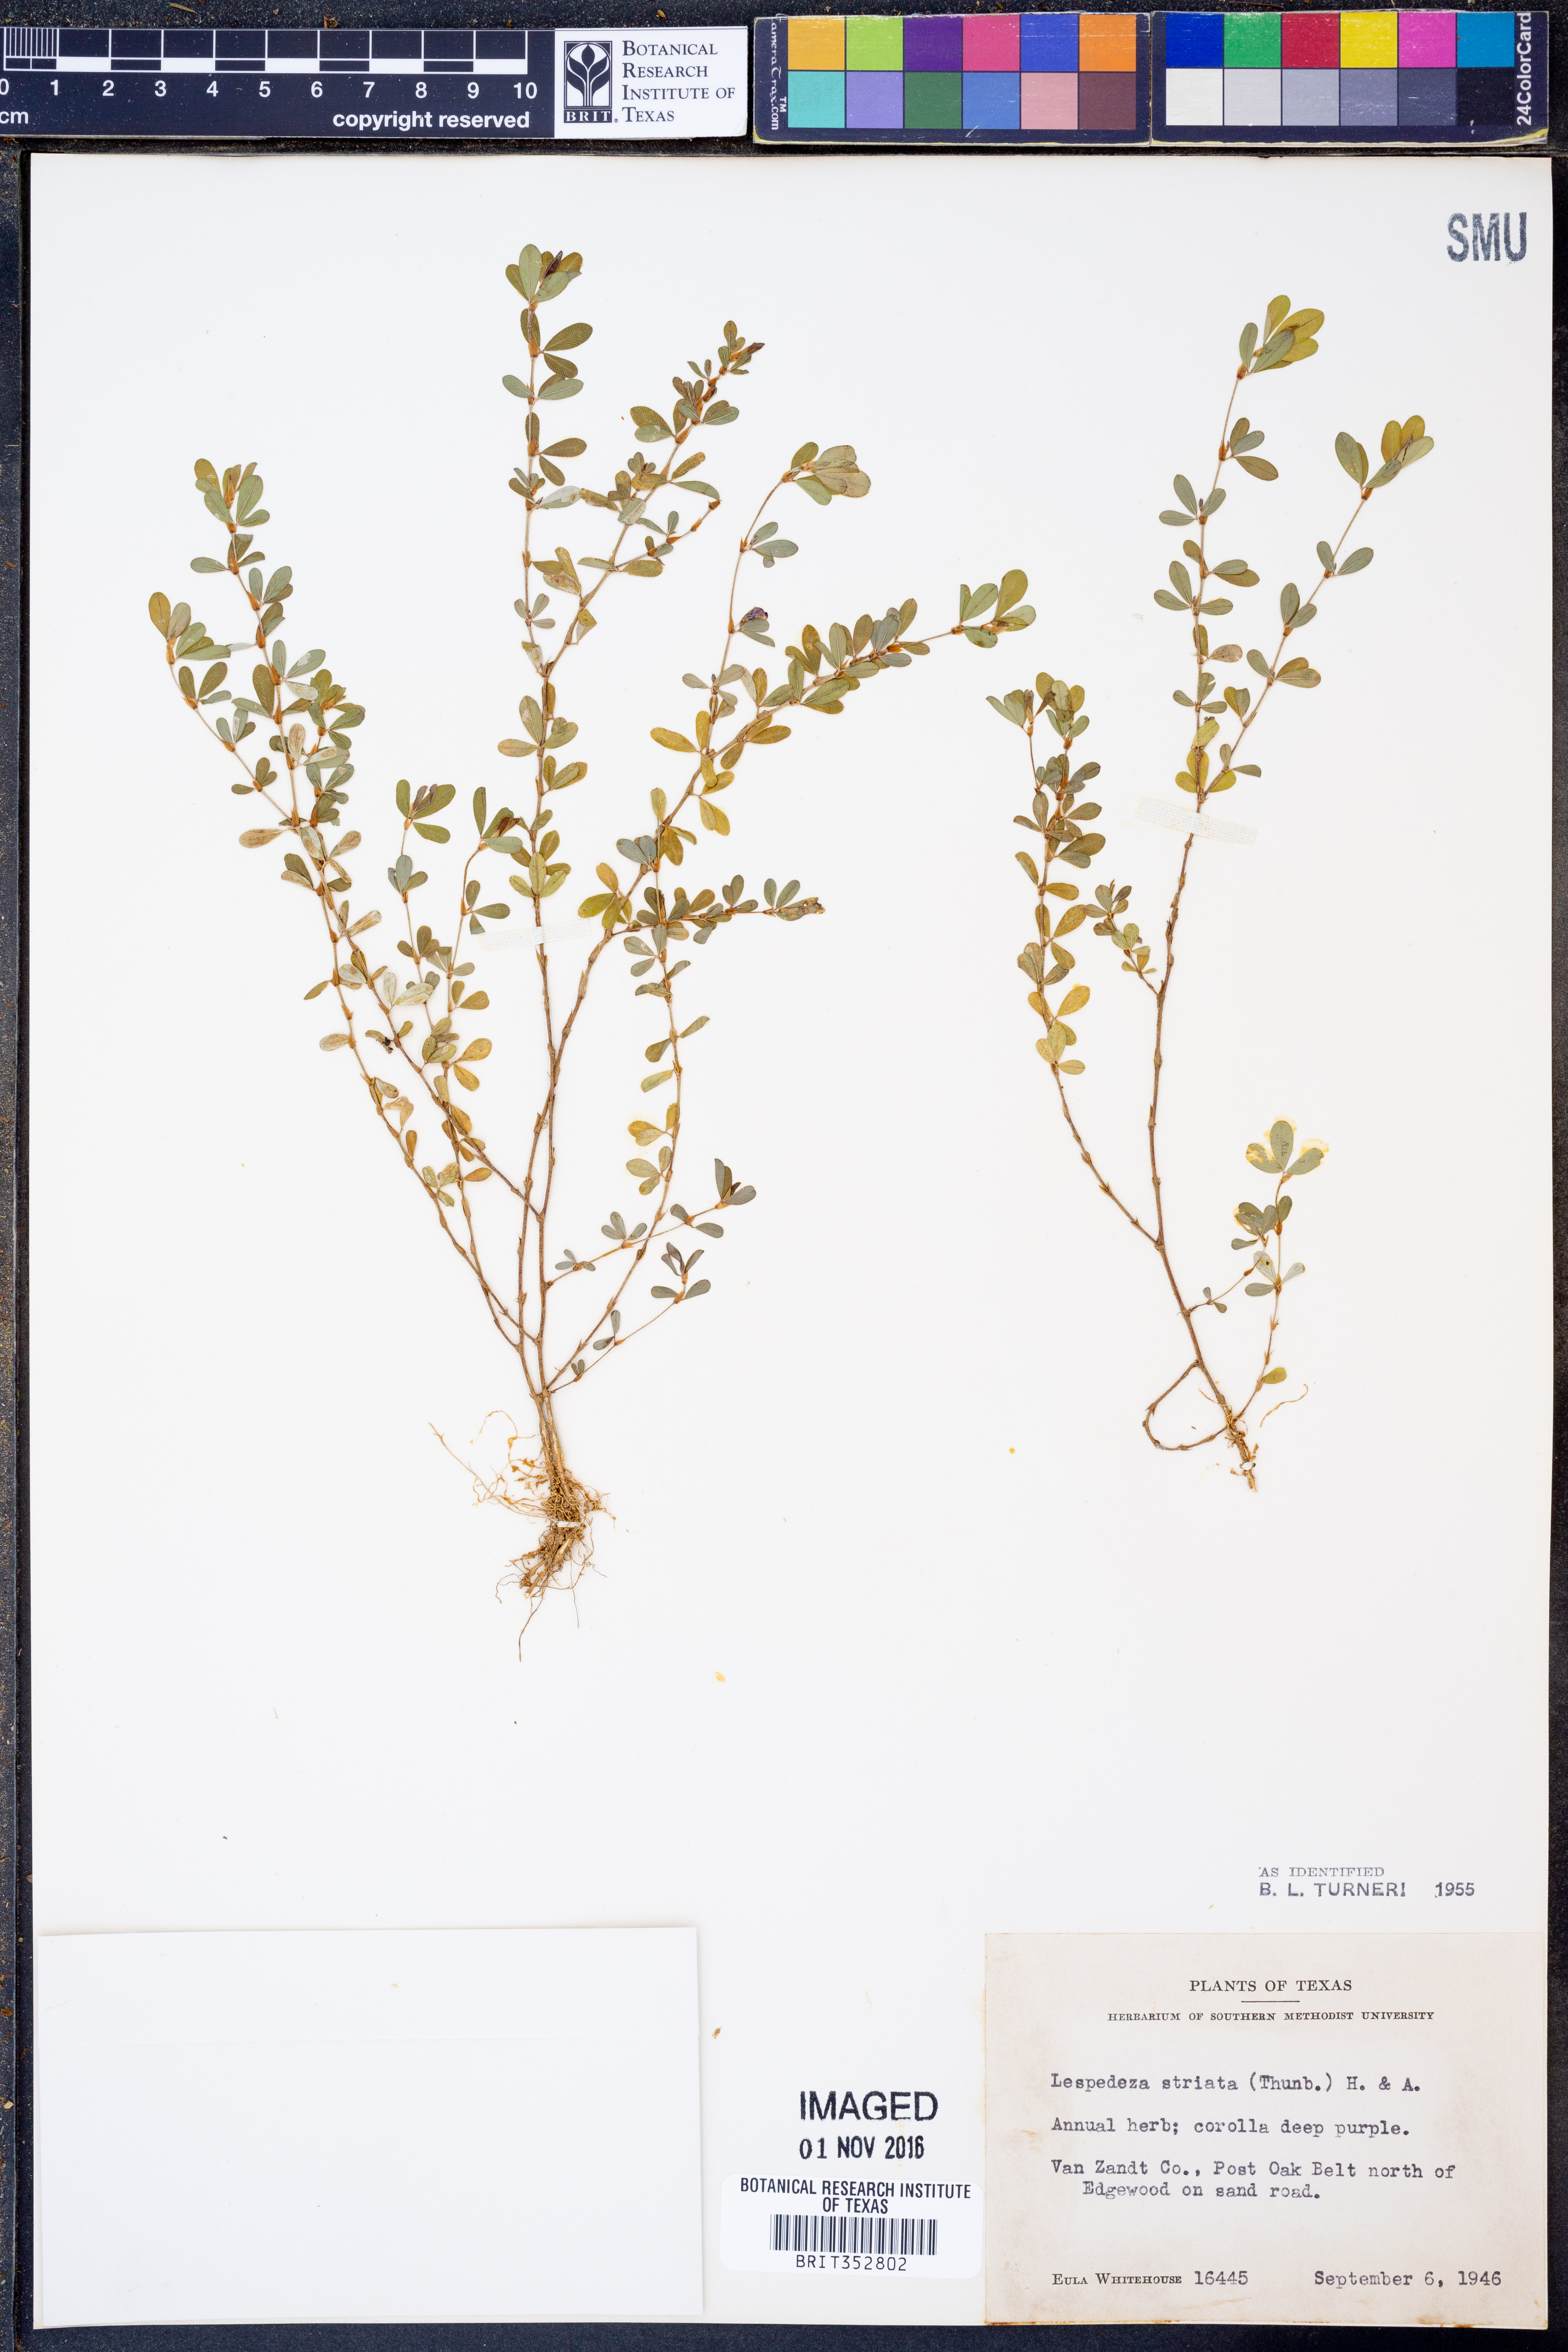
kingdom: Plantae
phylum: Tracheophyta
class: Magnoliopsida
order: Fabales
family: Fabaceae
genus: Kummerowia
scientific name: Kummerowia striata
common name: Japanese clover
